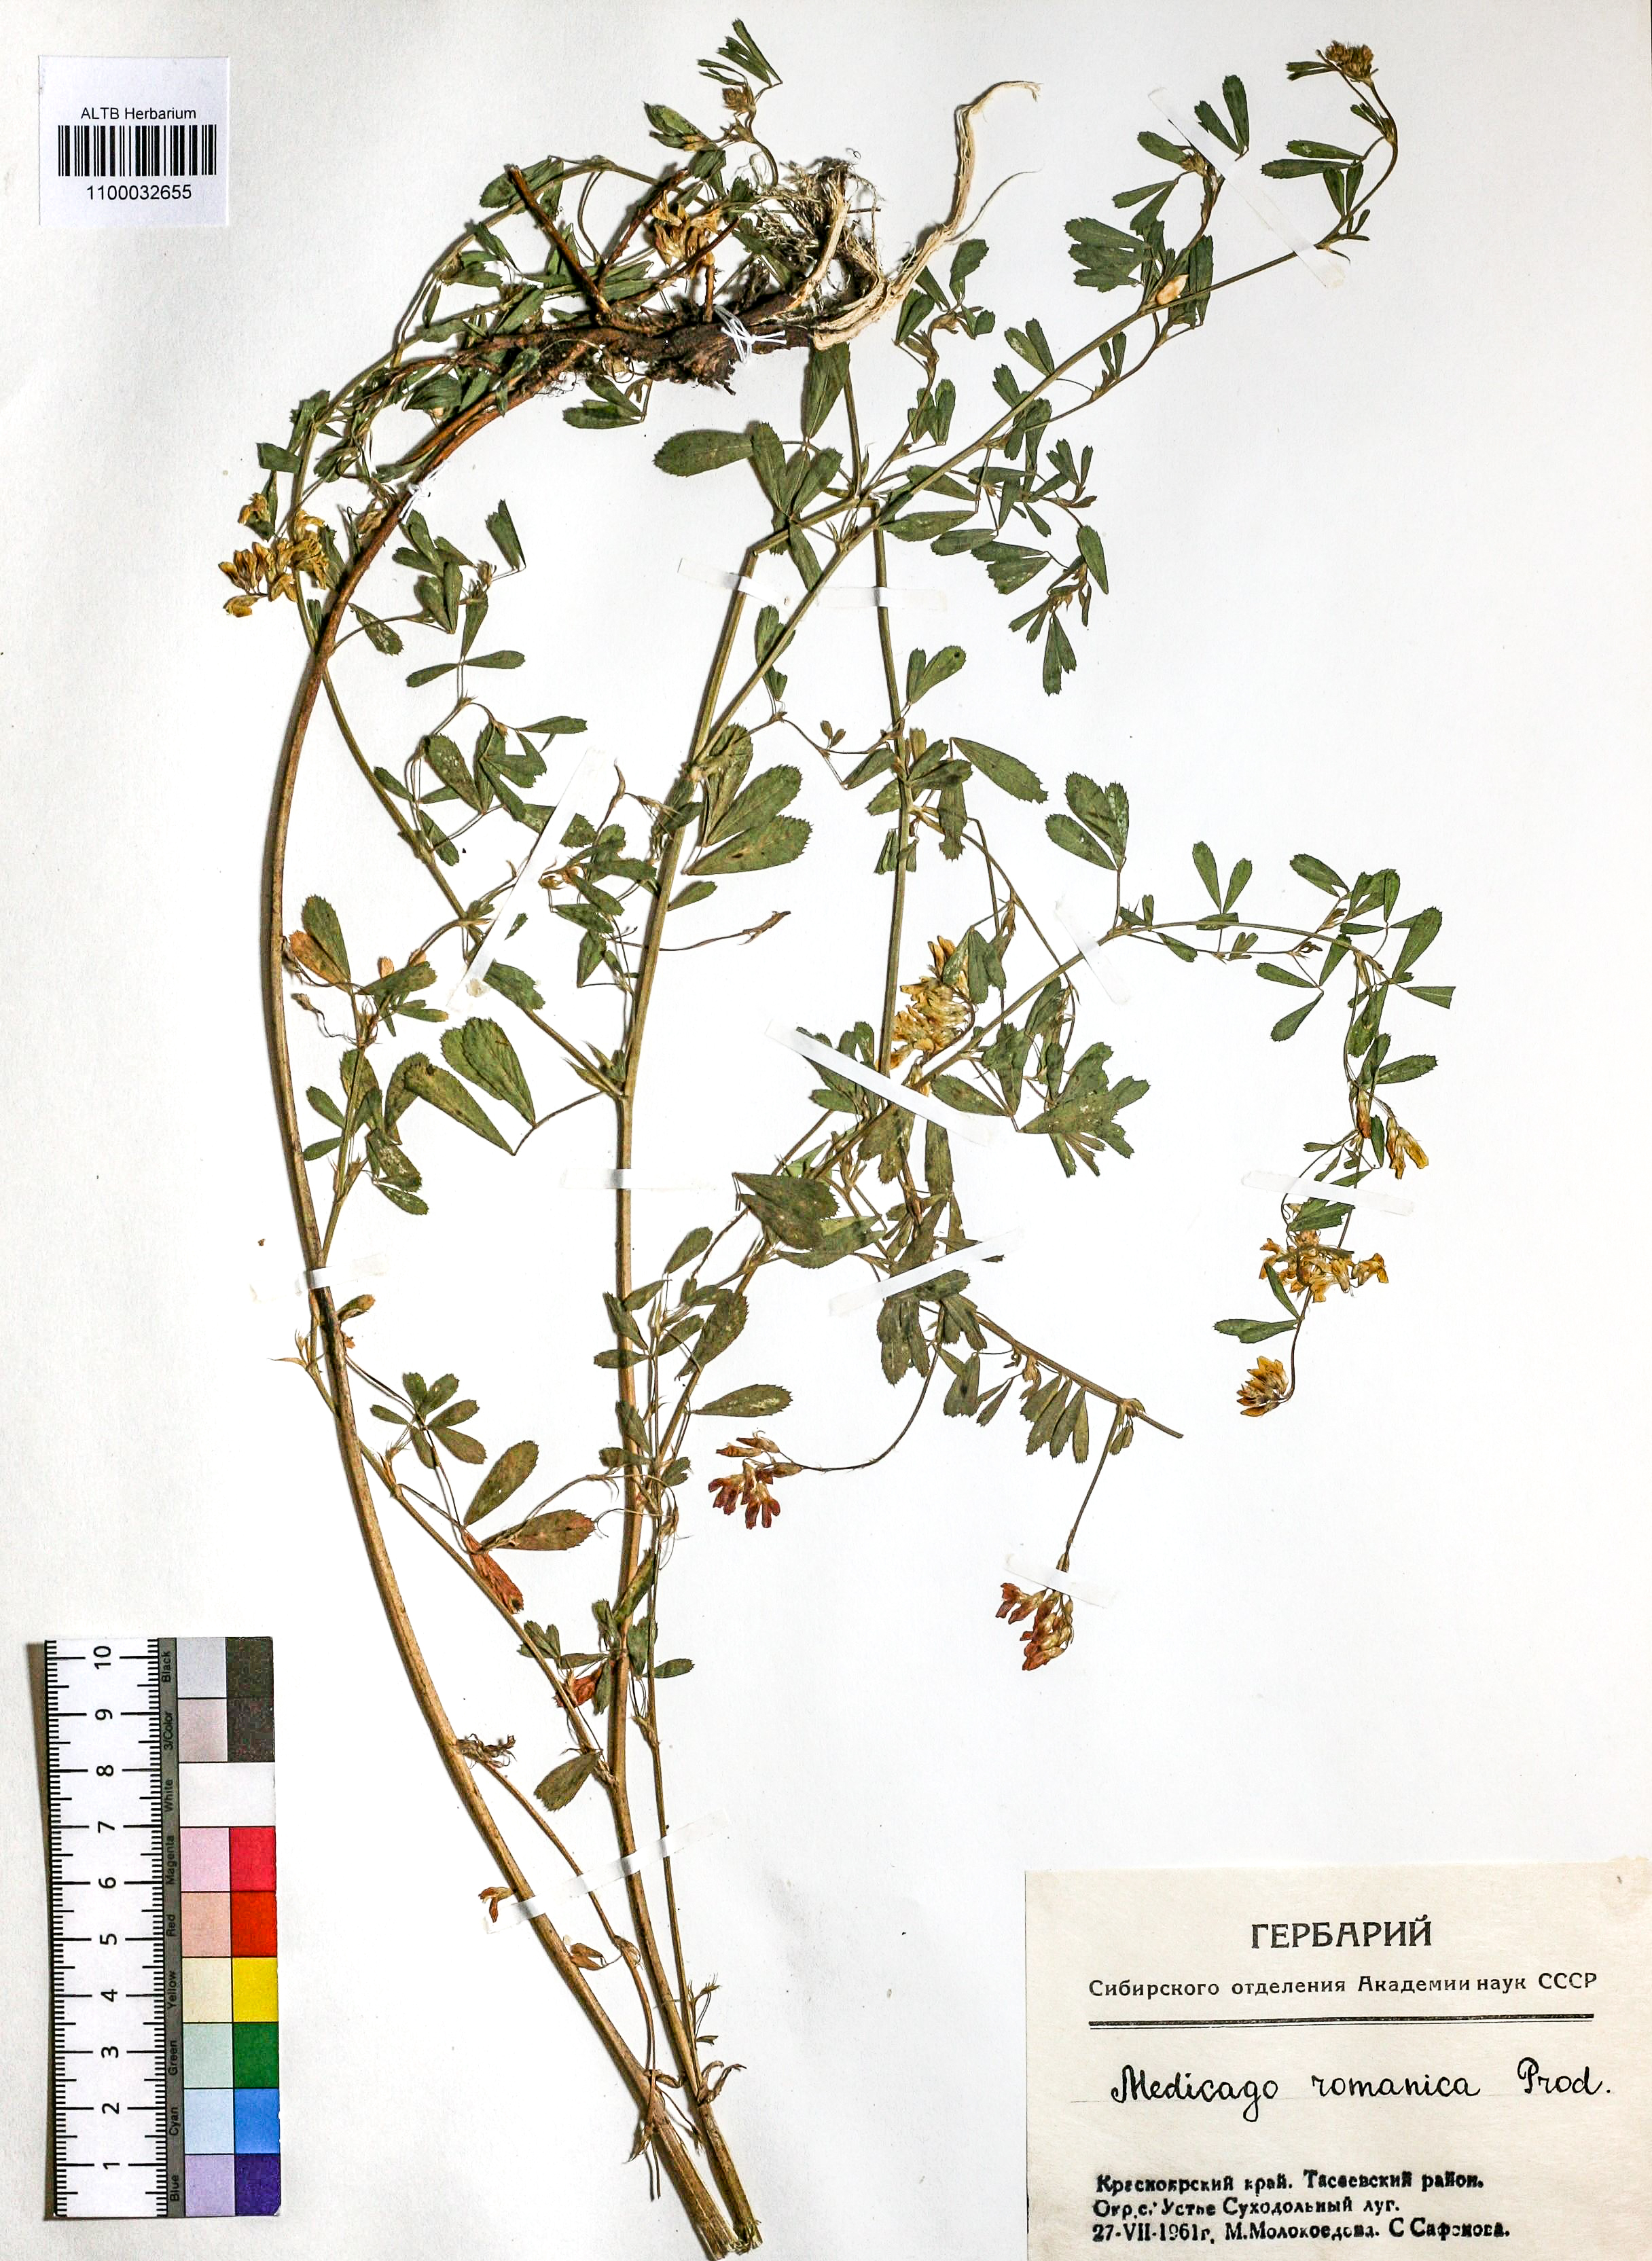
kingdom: Plantae
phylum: Tracheophyta
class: Magnoliopsida
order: Fabales
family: Fabaceae
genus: Medicago
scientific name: Medicago falcata
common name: Sickle medick
